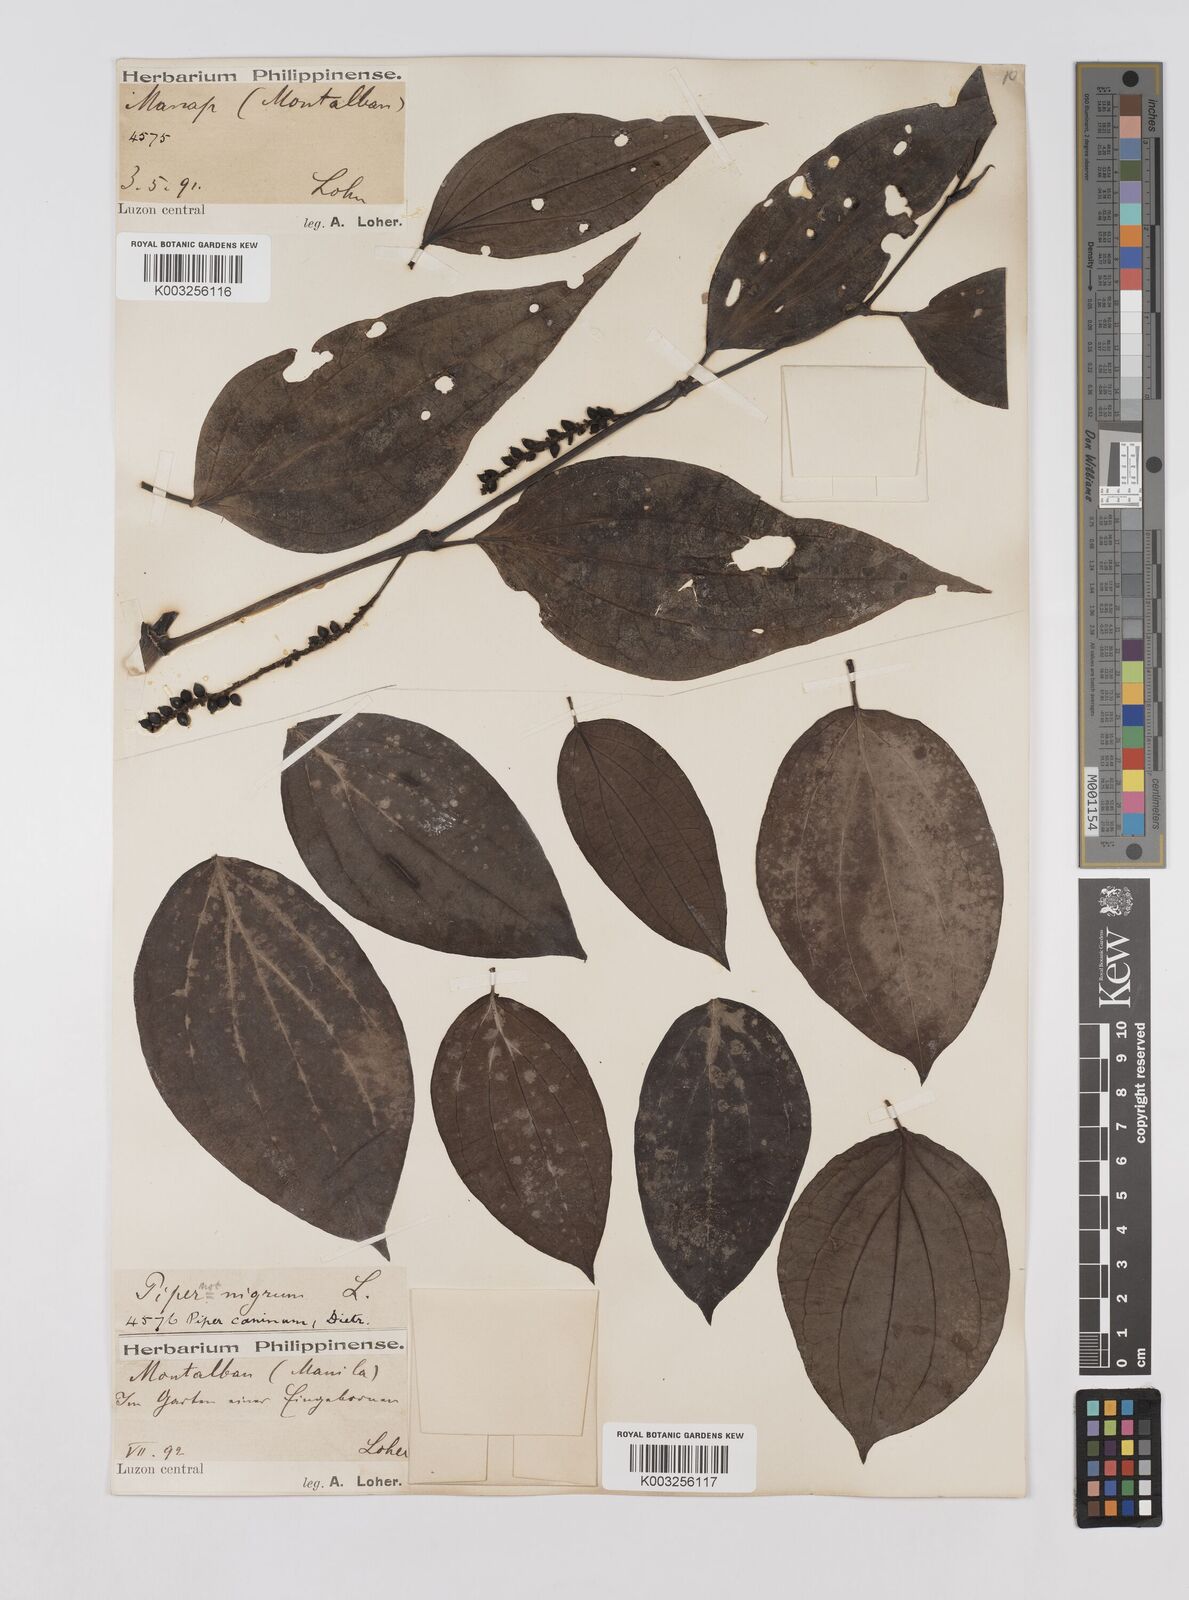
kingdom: Plantae
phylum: Tracheophyta
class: Magnoliopsida
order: Piperales
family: Piperaceae
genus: Piper
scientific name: Piper lanatum
